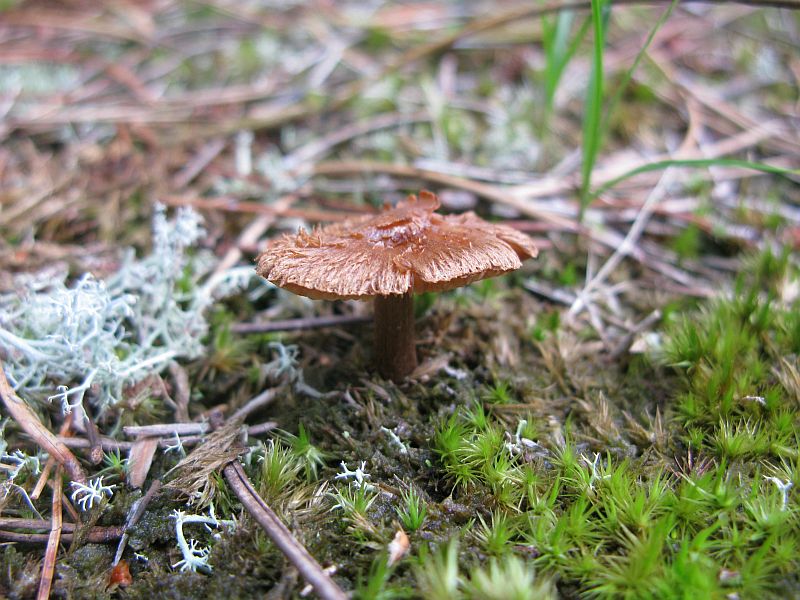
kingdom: Fungi
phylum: Basidiomycota
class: Agaricomycetes
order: Agaricales
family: Inocybaceae
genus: Inocybe
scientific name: Inocybe cincinnata
